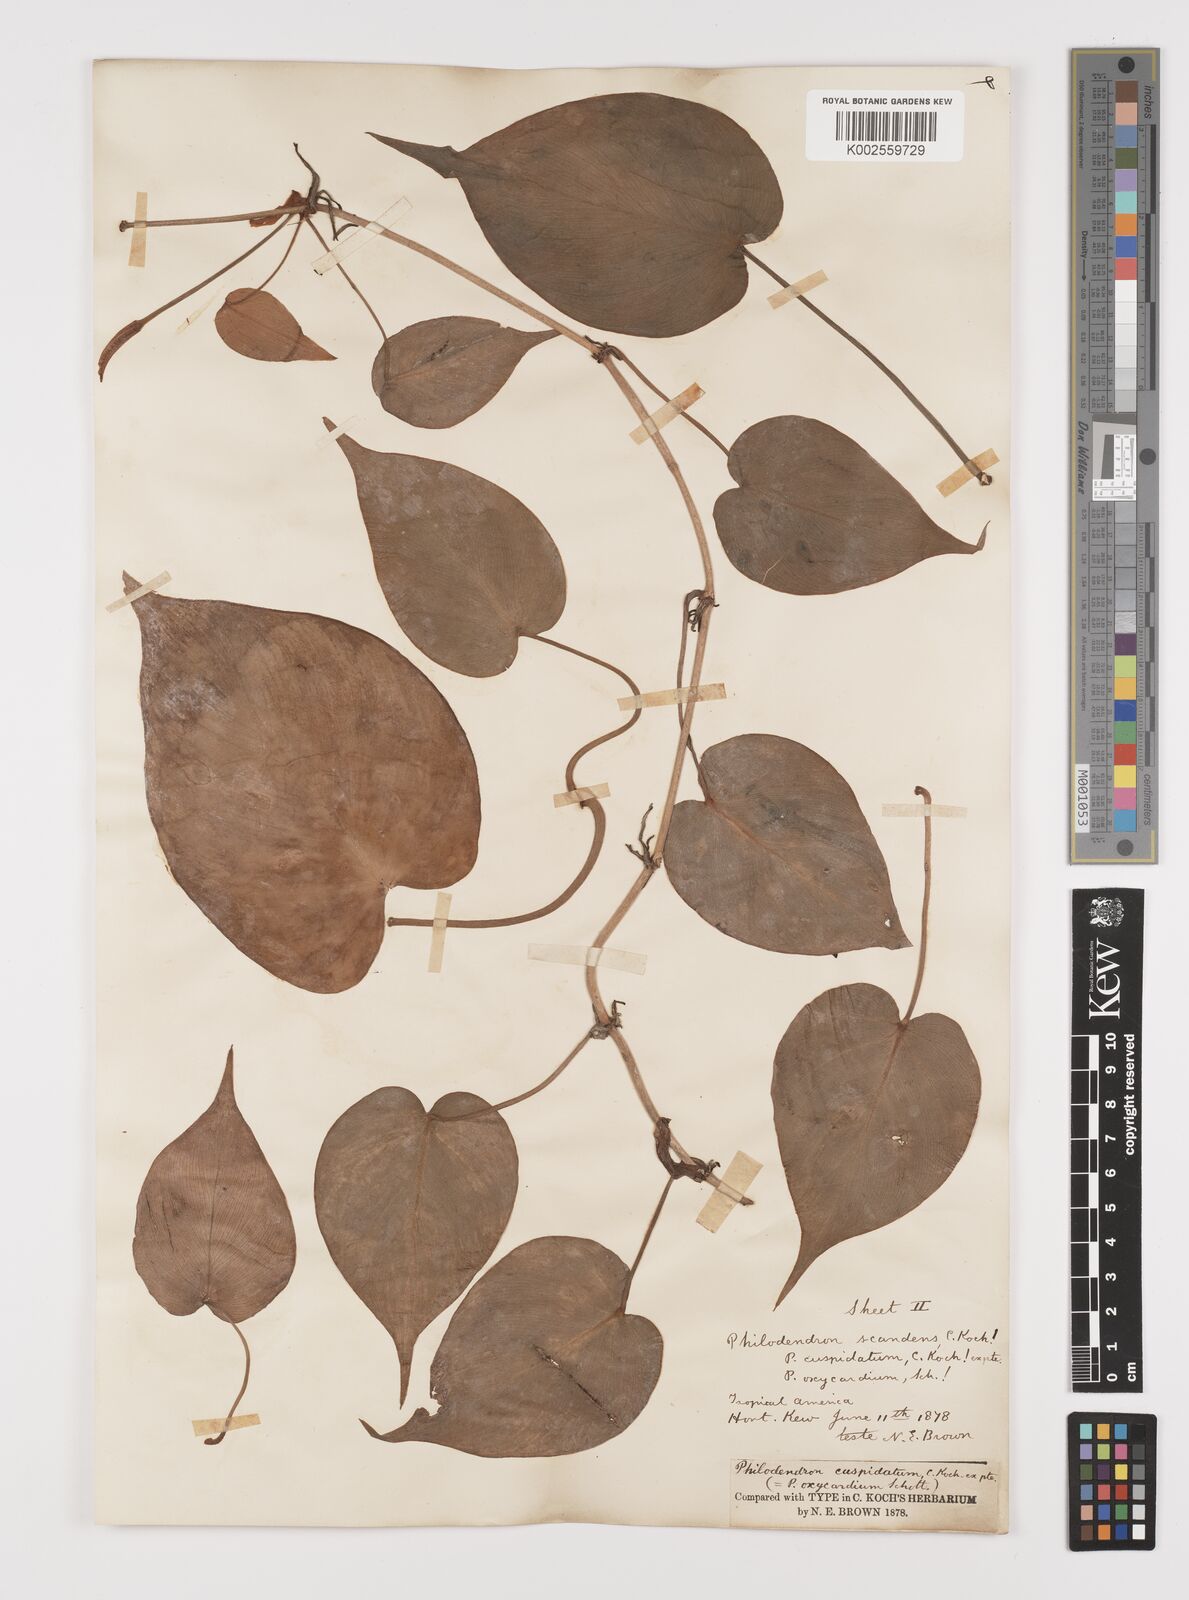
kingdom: Plantae
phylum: Tracheophyta
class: Liliopsida
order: Alismatales
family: Araceae
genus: Philodendron
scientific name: Philodendron hederaceum
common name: Vilevine
